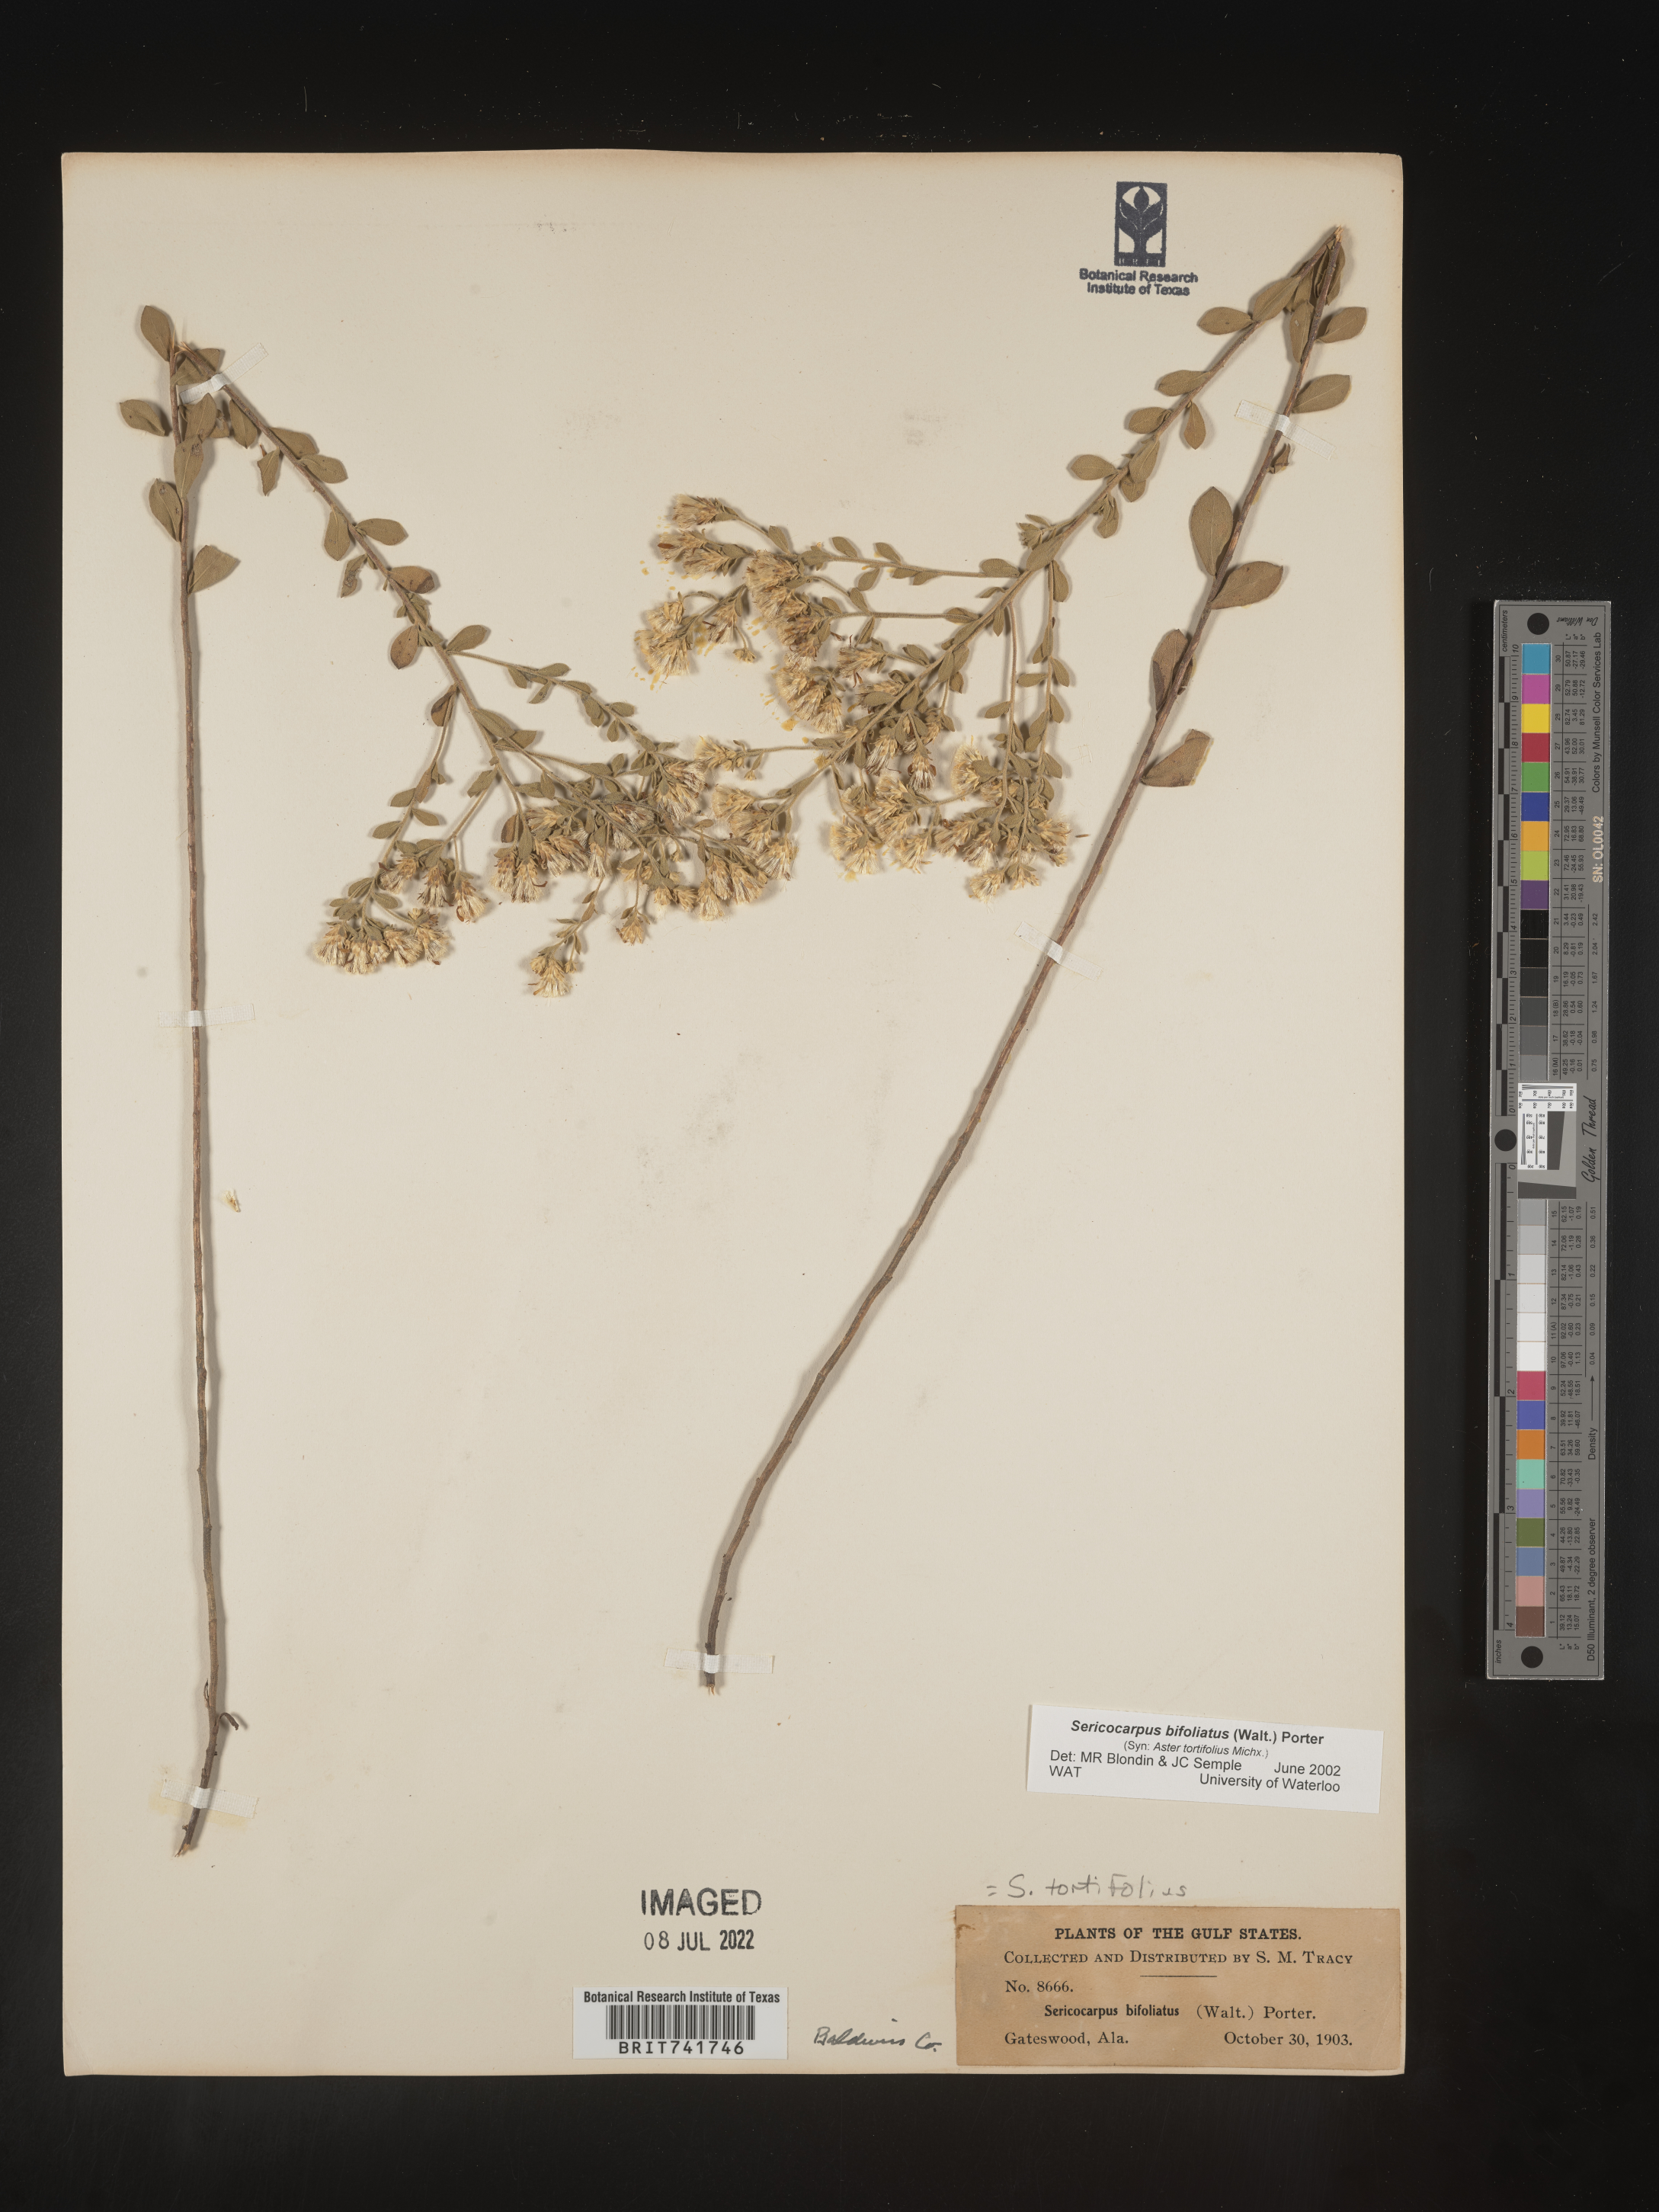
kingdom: Plantae
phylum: Tracheophyta
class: Magnoliopsida
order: Asterales
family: Asteraceae
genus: Sericocarpus
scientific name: Sericocarpus tortifolius
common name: Dixie aster
